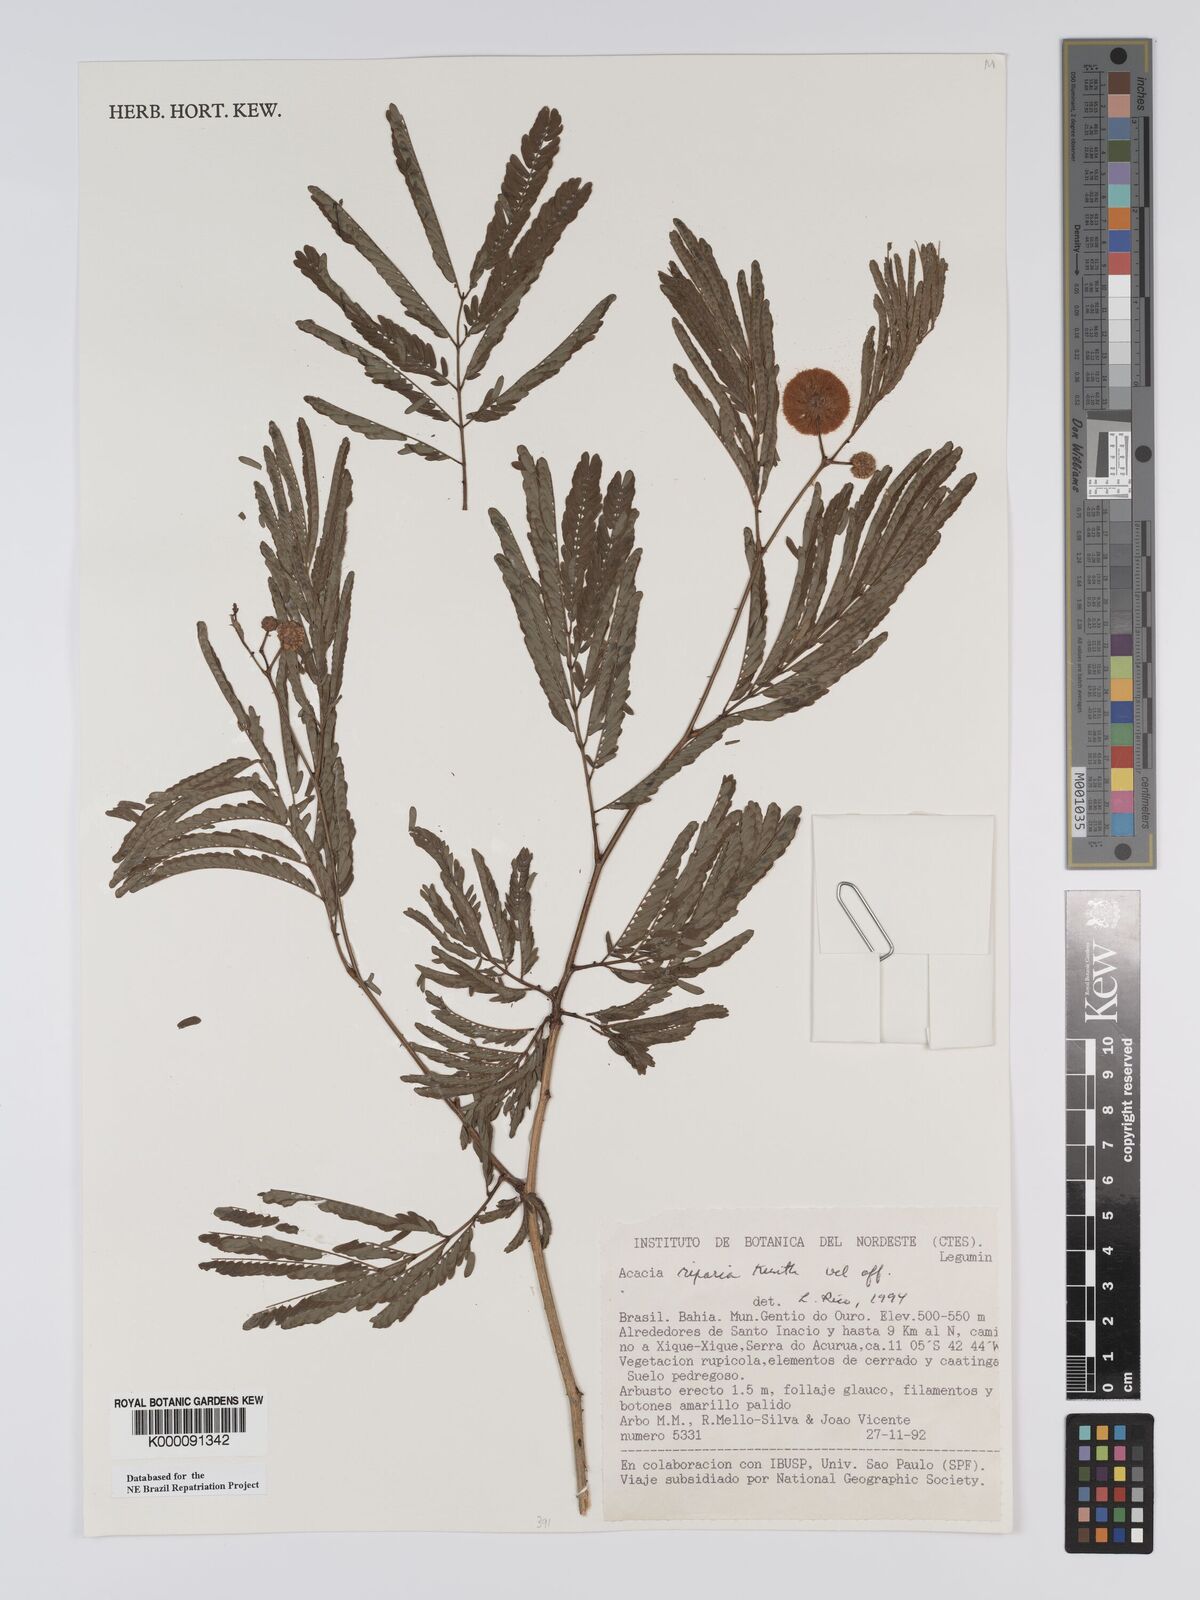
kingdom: Plantae
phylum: Tracheophyta
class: Magnoliopsida
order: Fabales
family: Fabaceae
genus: Senegalia
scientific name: Senegalia riparia
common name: Catch-and-keep
